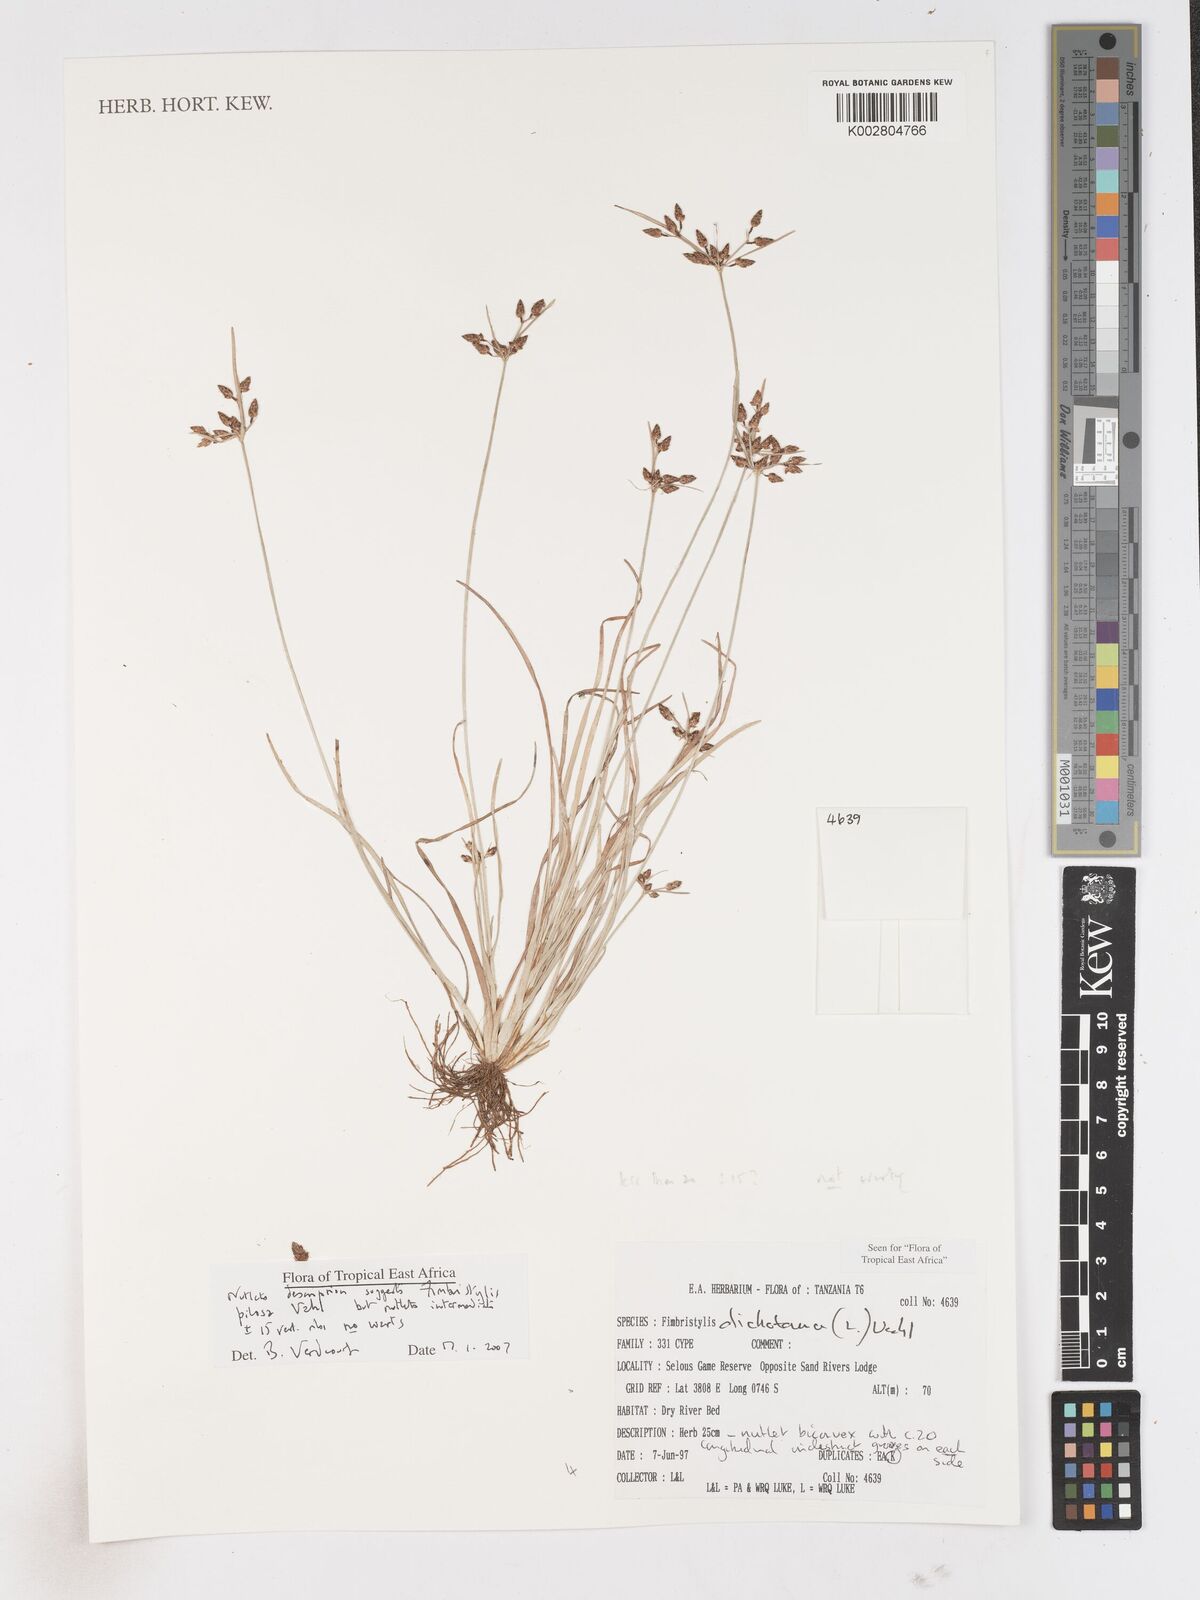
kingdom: Plantae
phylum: Tracheophyta
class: Liliopsida
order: Poales
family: Cyperaceae
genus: Fimbristylis
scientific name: Fimbristylis pilosa
